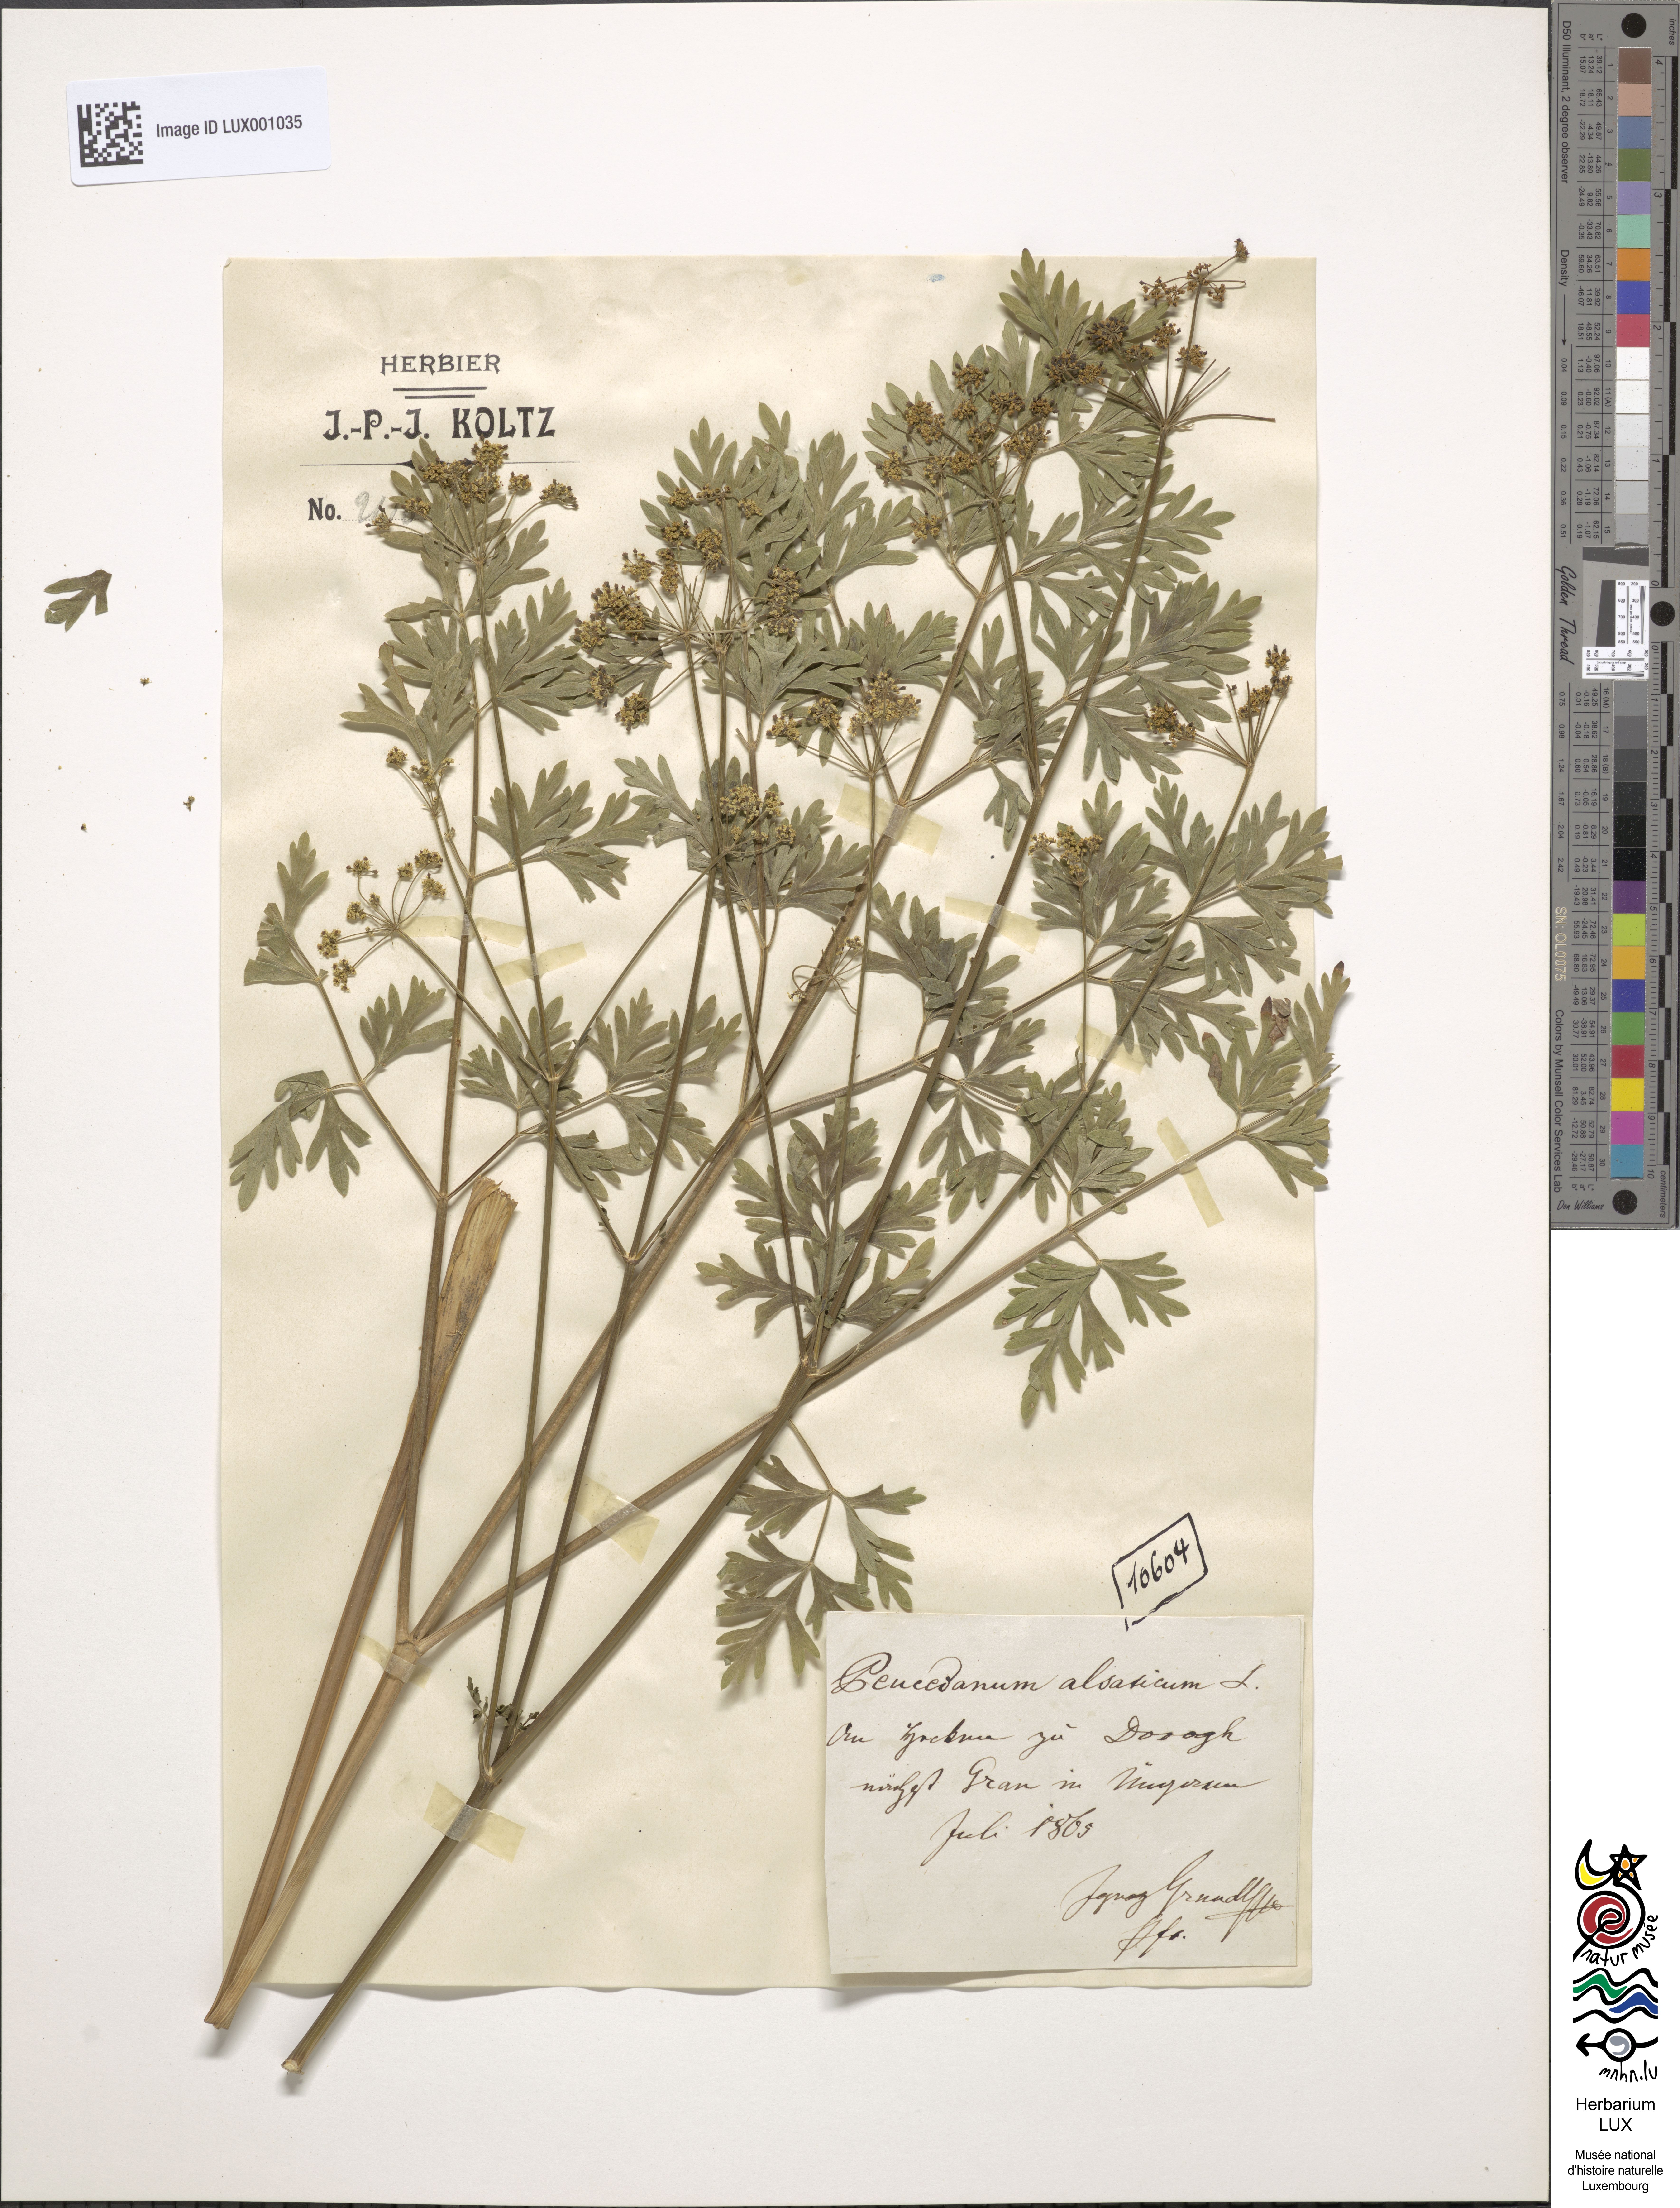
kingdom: Plantae
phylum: Tracheophyta
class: Magnoliopsida
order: Apiales
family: Apiaceae
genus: Xanthoselinum
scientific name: Xanthoselinum alsaticum
